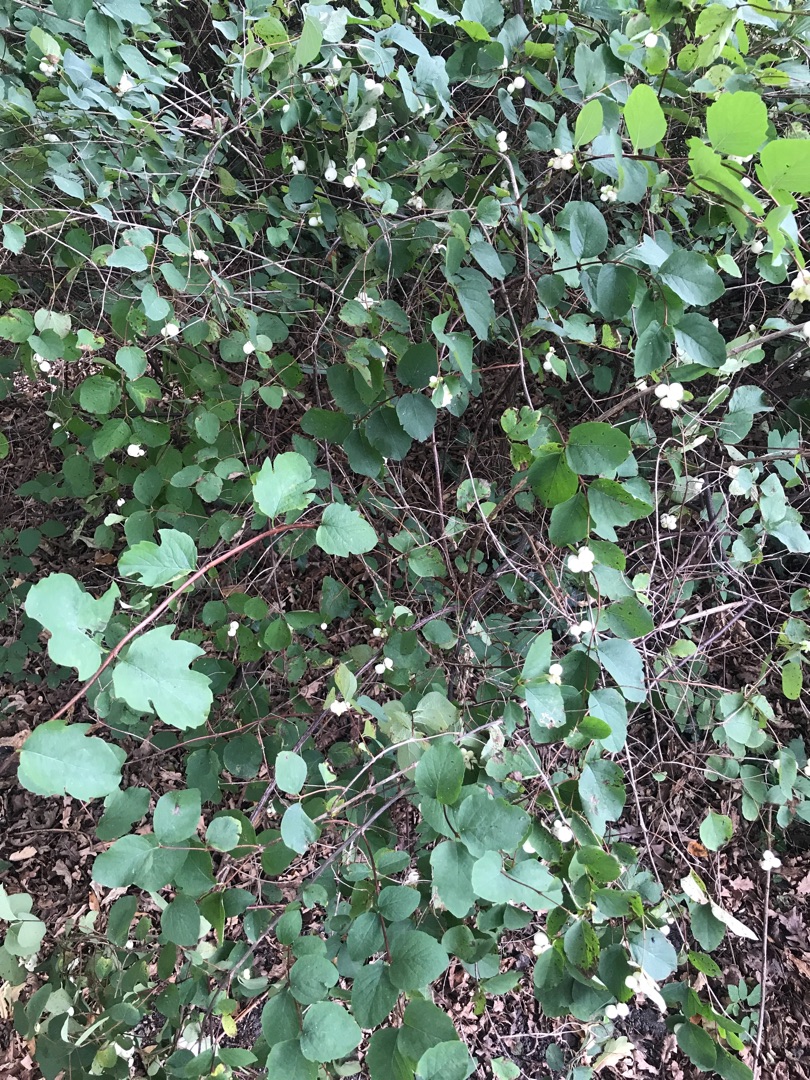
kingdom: Plantae
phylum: Tracheophyta
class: Magnoliopsida
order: Dipsacales
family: Caprifoliaceae
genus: Symphoricarpos
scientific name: Symphoricarpos albus
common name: Almindelig snebær
